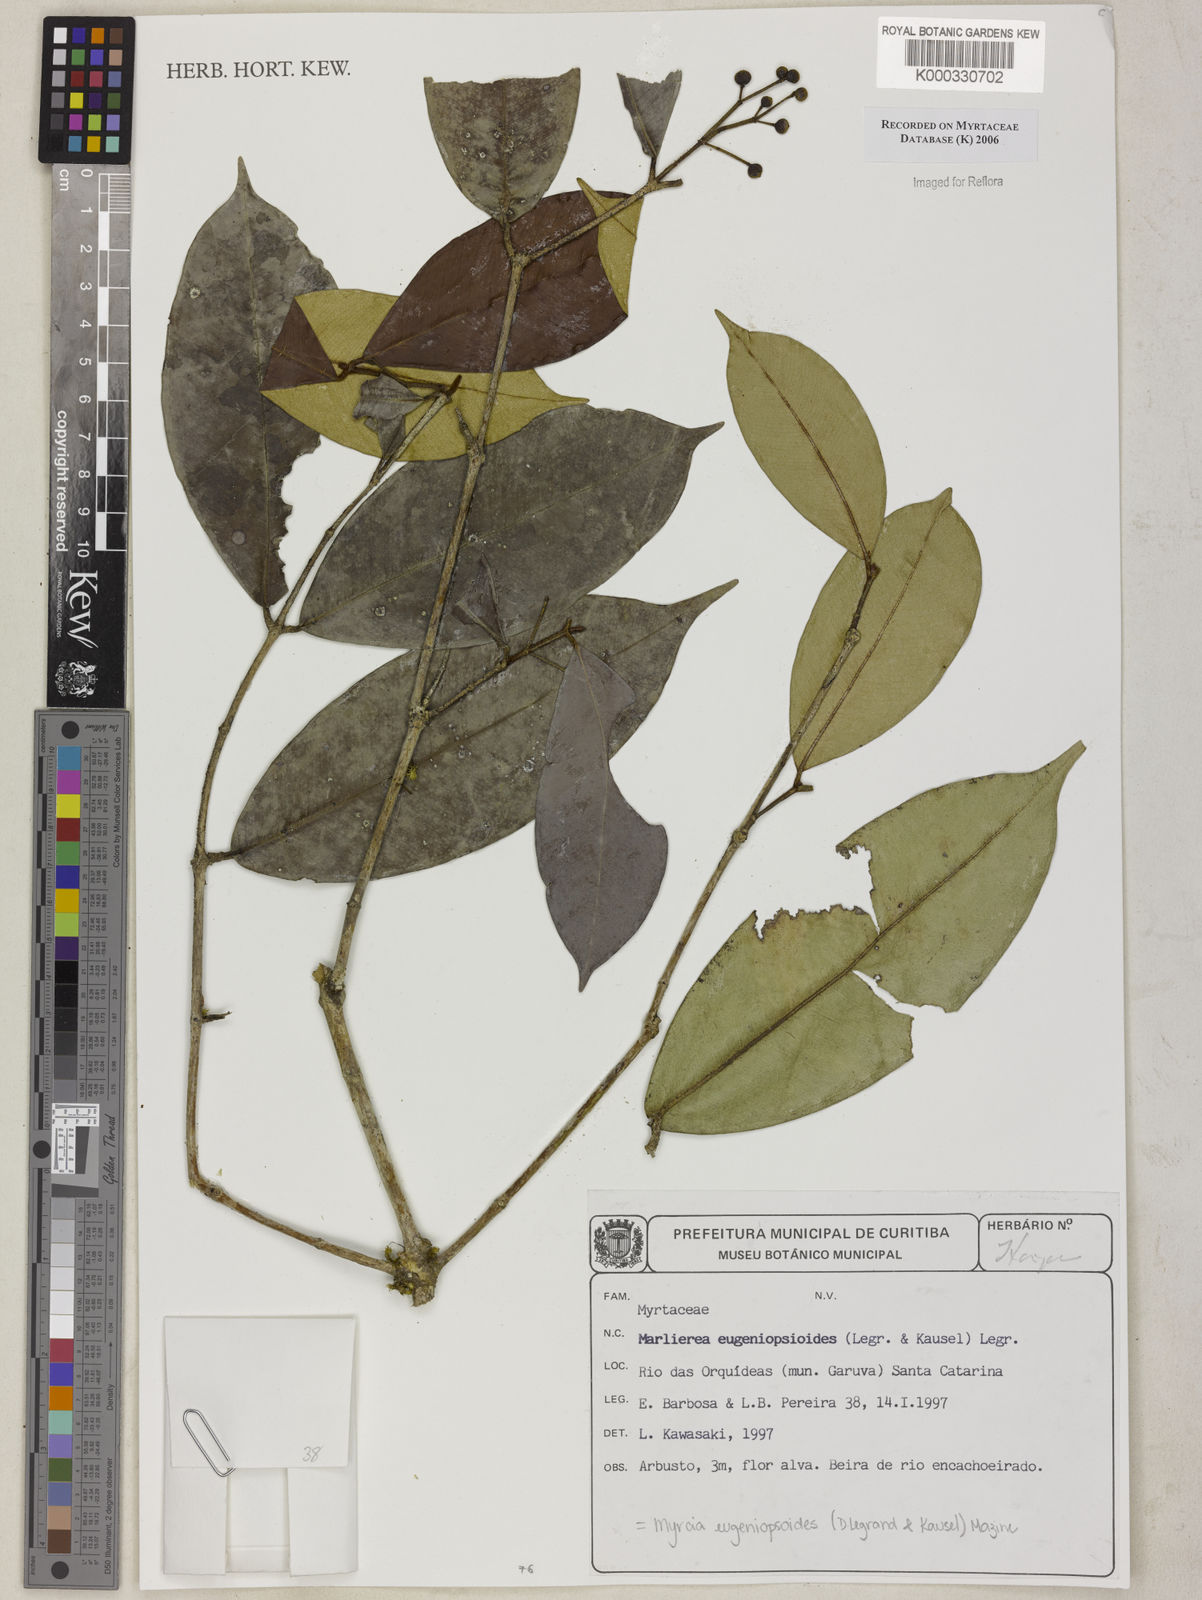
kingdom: Plantae
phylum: Tracheophyta
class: Magnoliopsida
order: Myrtales
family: Myrtaceae
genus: Myrcia
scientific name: Myrcia eugeniopsoides
